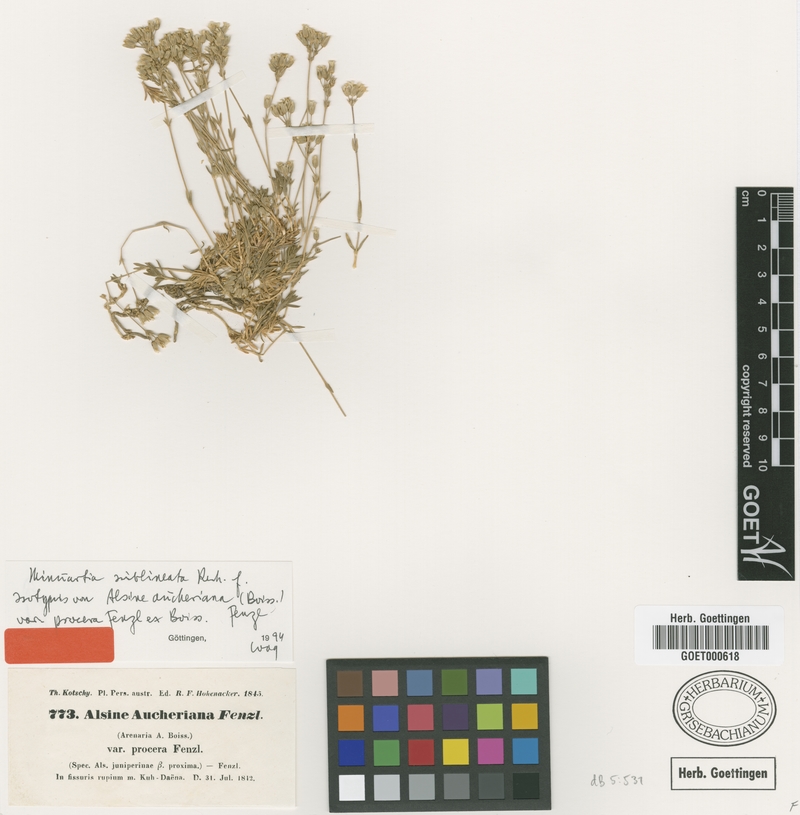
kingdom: Plantae
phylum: Tracheophyta
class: Magnoliopsida
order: Caryophyllales
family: Caryophyllaceae
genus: Sabulina
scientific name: Sabulina sublineata
